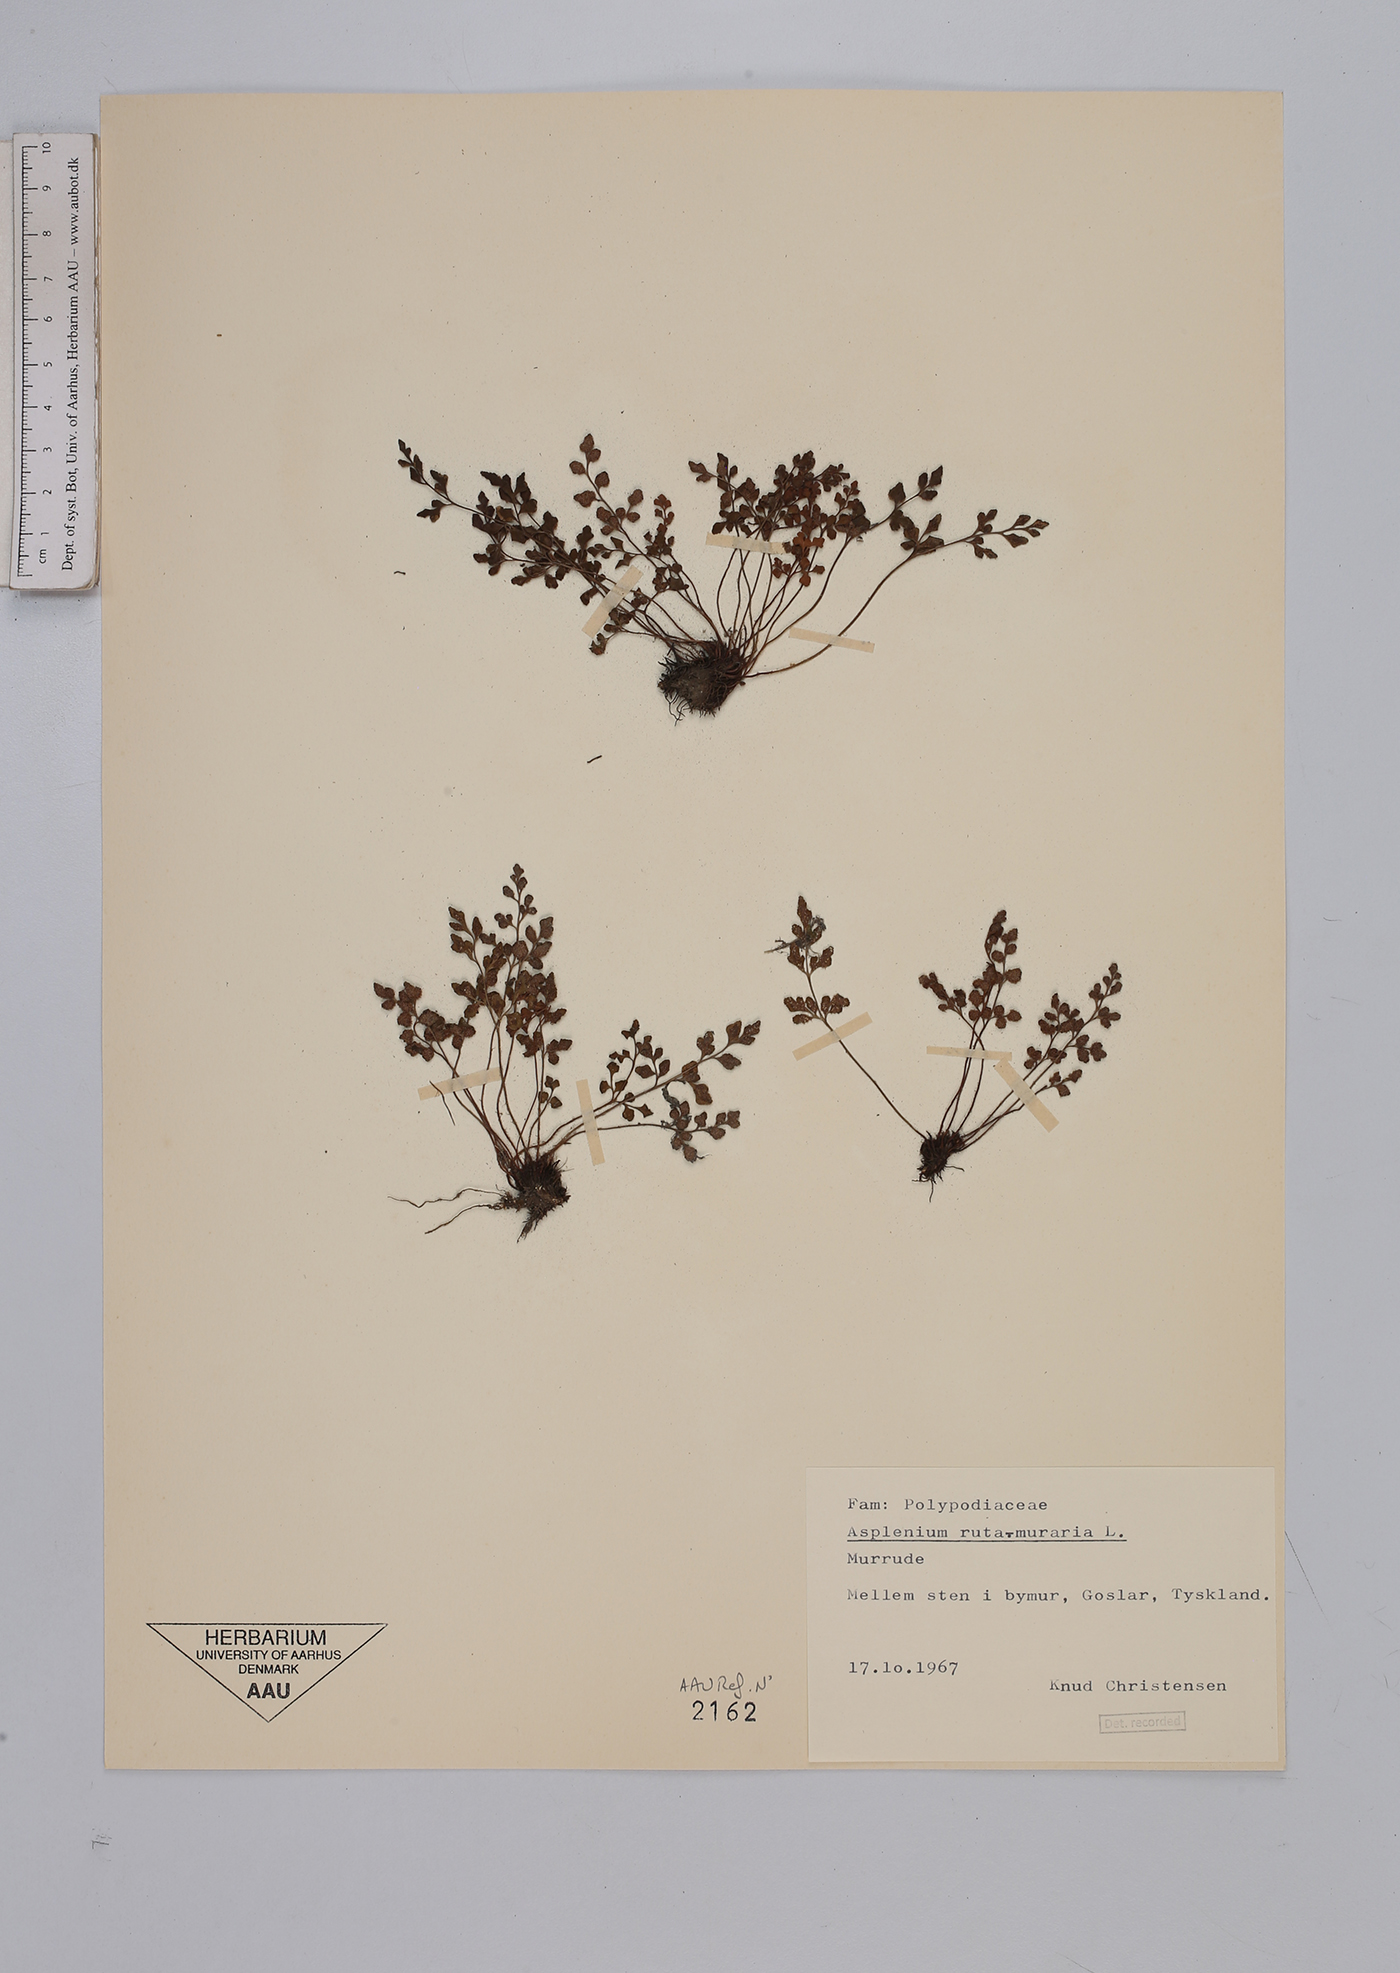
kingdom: Plantae
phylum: Tracheophyta
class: Polypodiopsida
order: Polypodiales
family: Aspleniaceae
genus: Asplenium
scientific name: Asplenium ruta-muraria
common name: Wall-rue
